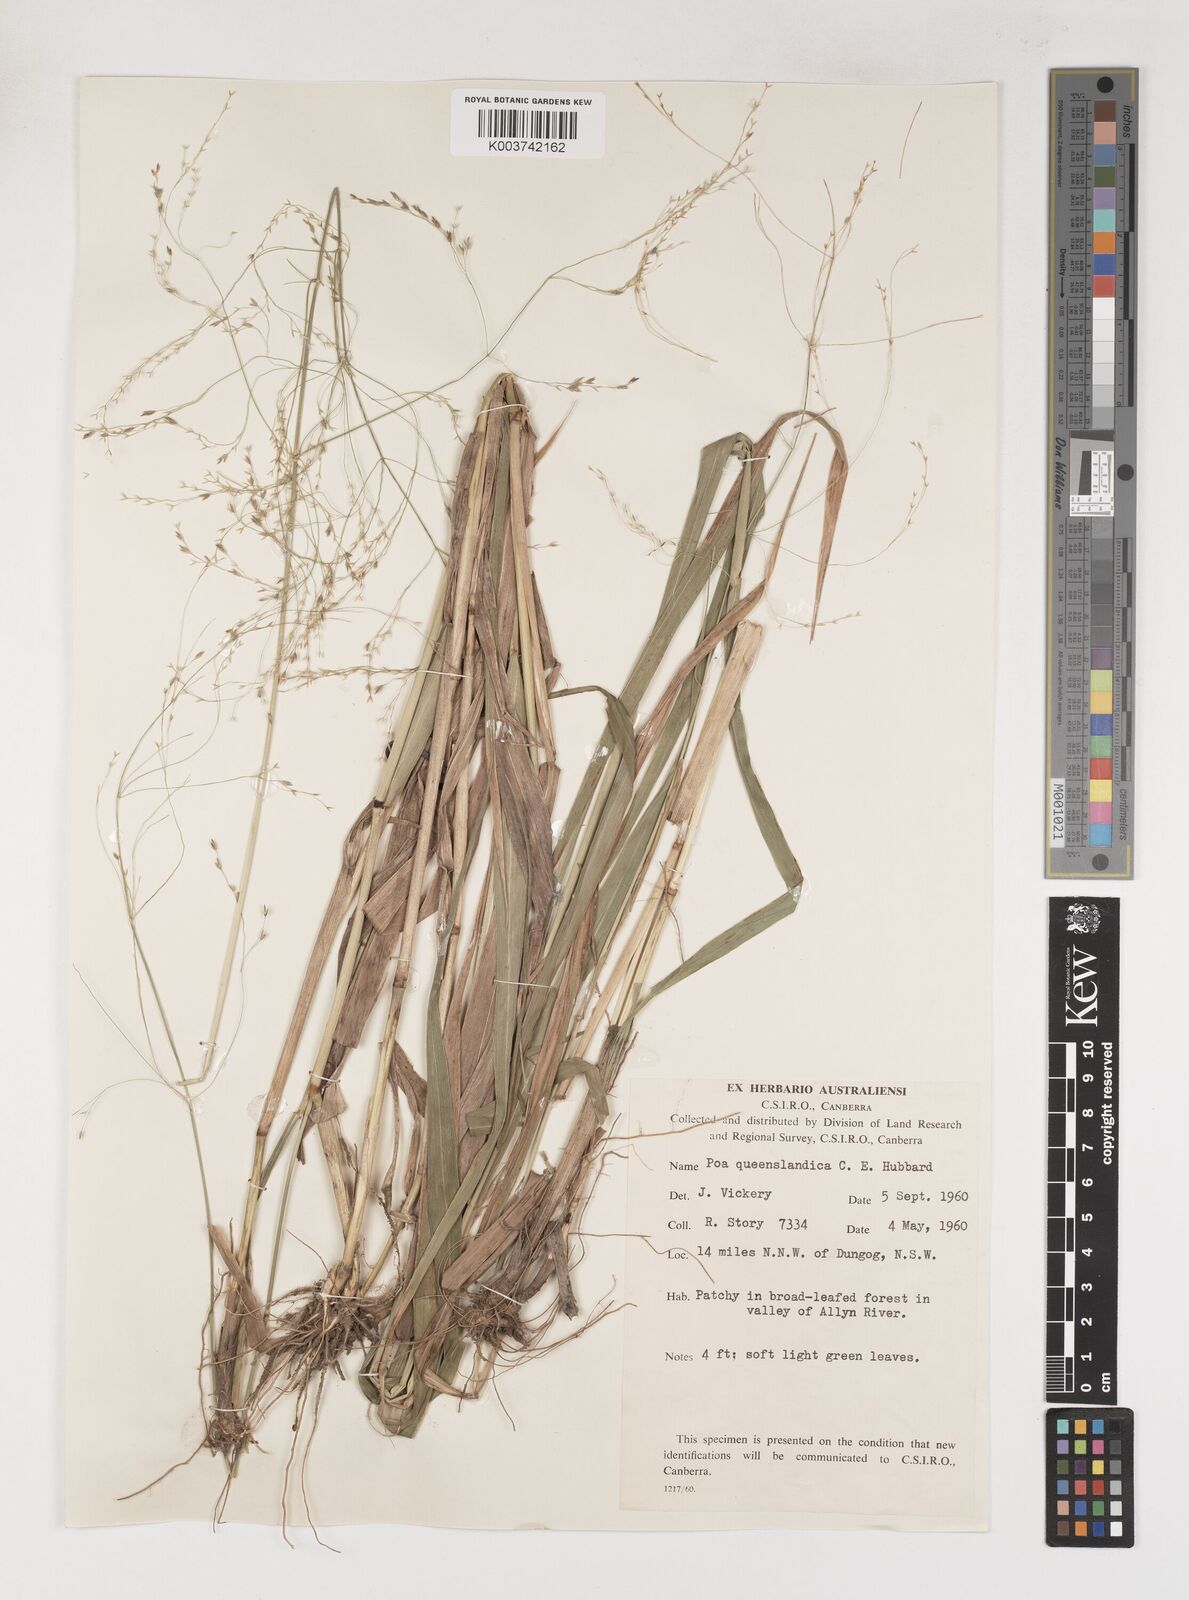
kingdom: Plantae
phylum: Tracheophyta
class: Liliopsida
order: Poales
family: Poaceae
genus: Sylvipoa
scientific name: Sylvipoa queenslandica
